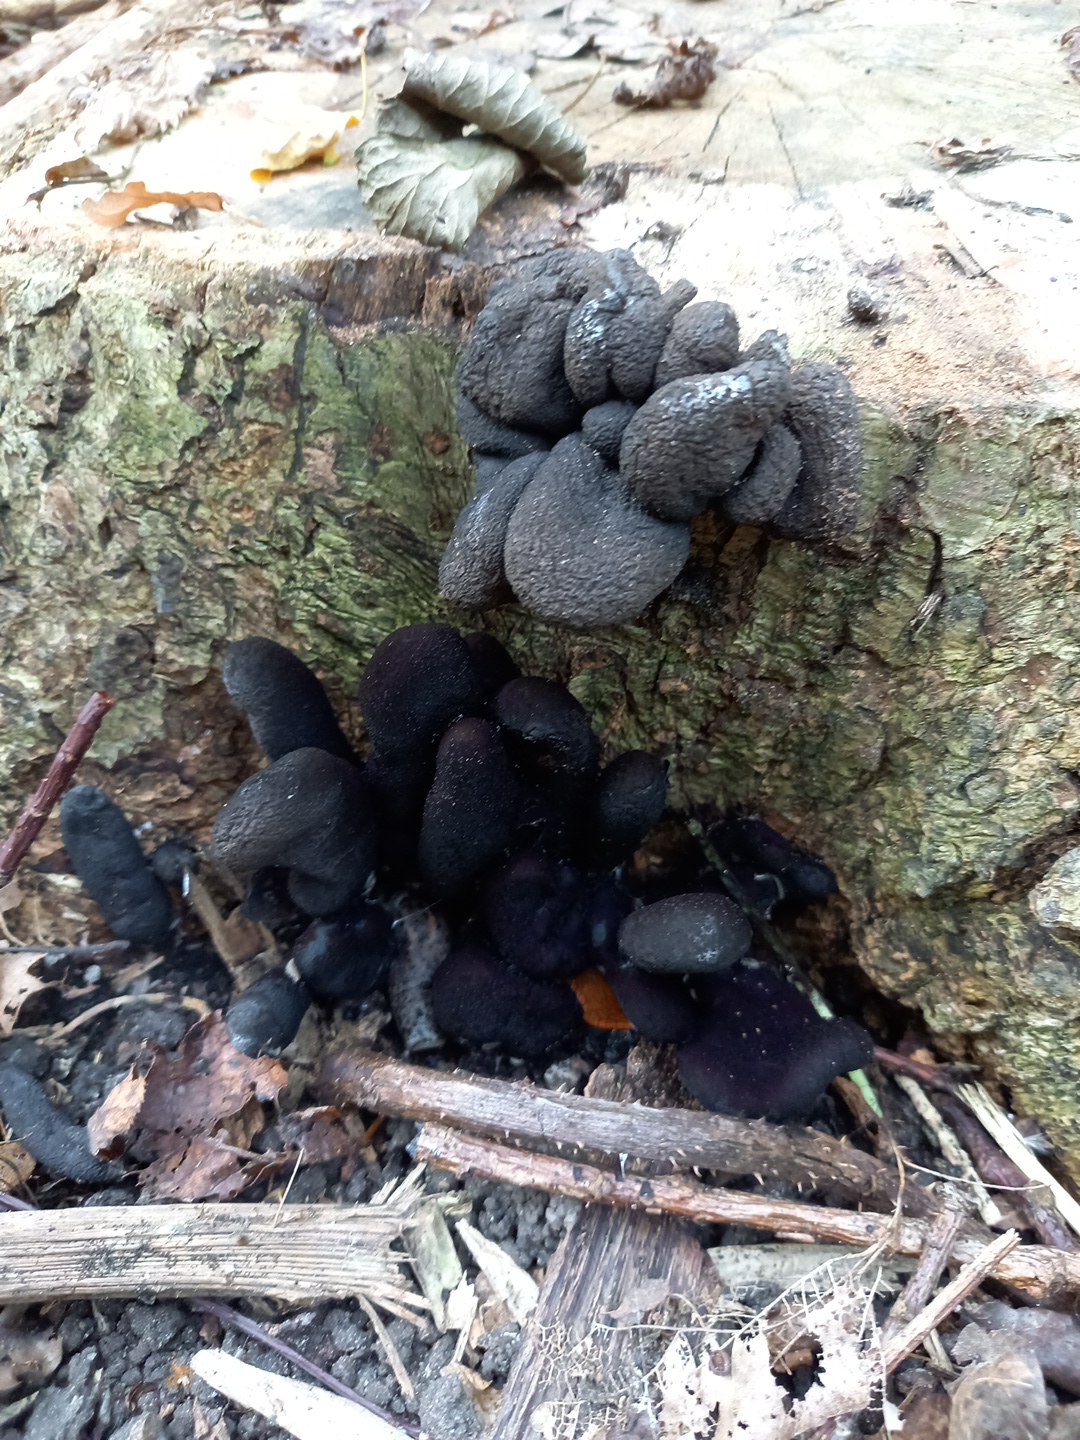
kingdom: Fungi
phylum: Ascomycota
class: Sordariomycetes
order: Xylariales
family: Xylariaceae
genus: Xylaria
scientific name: Xylaria polymorpha
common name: kølle-stødsvamp
